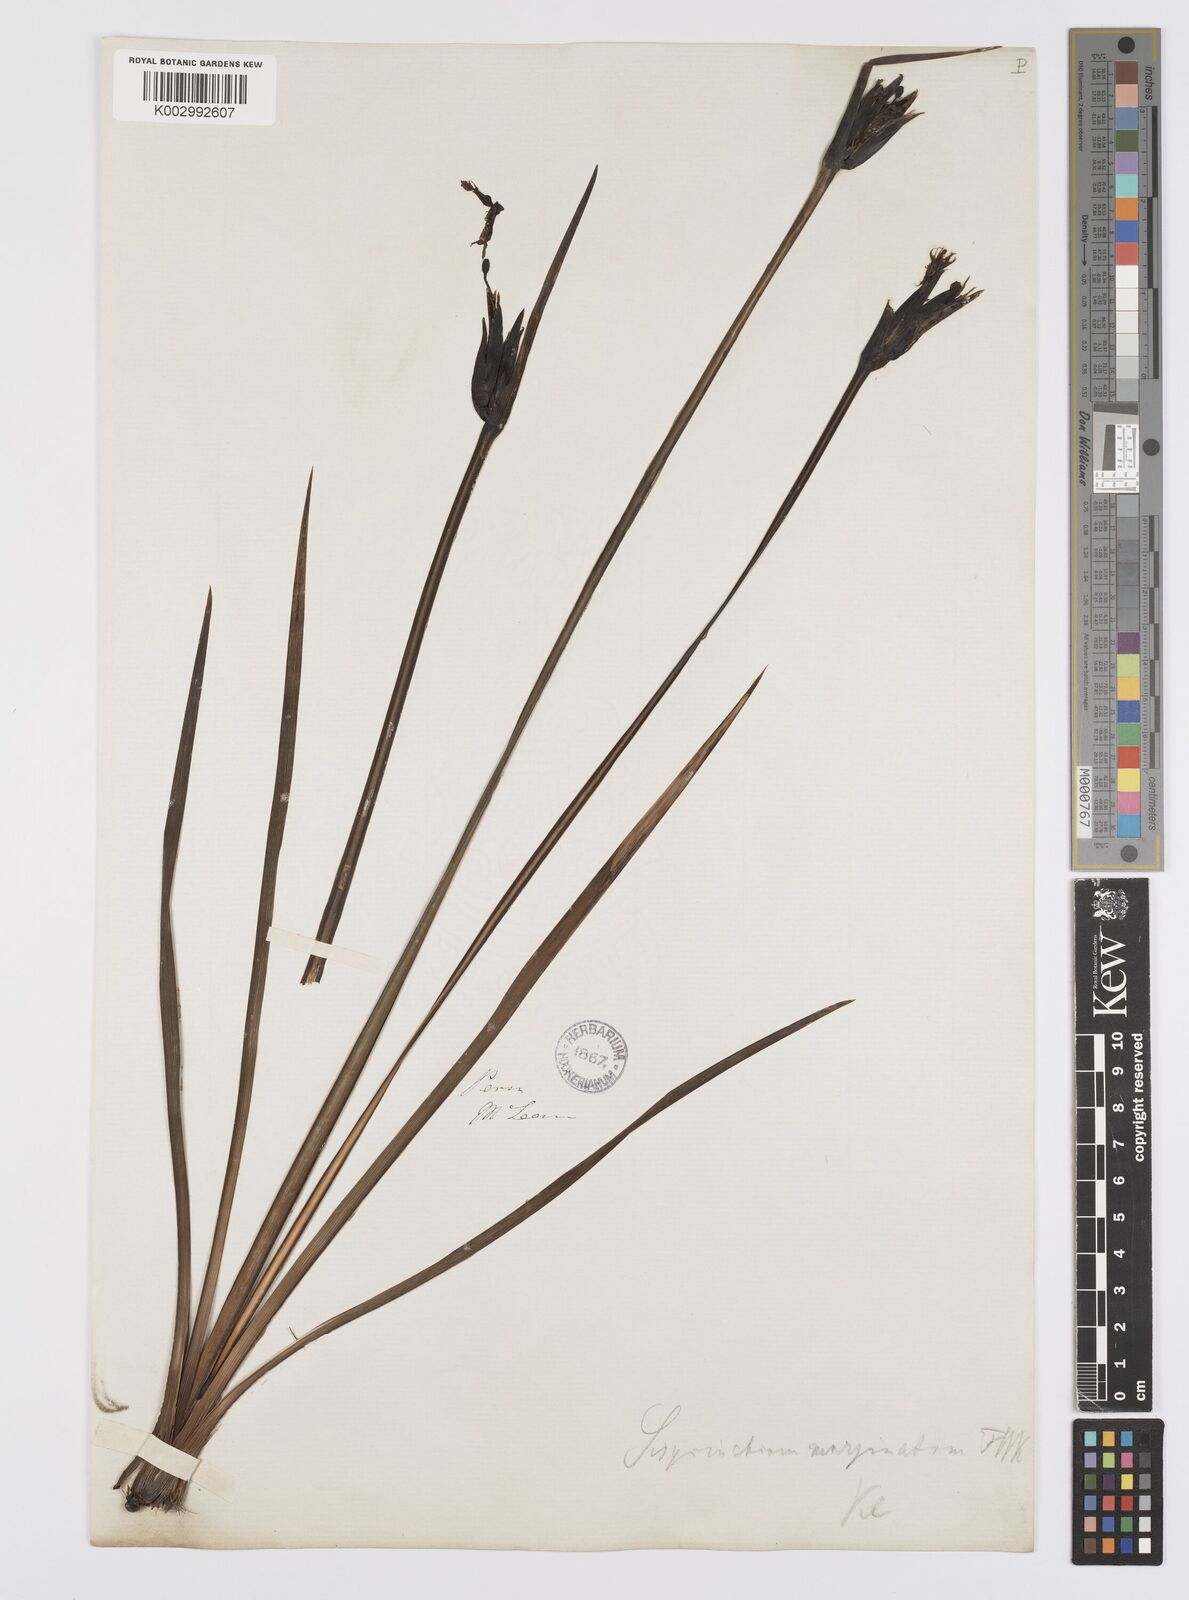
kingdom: Plantae
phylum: Tracheophyta
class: Liliopsida
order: Asparagales
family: Iridaceae
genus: Sisyrinchium
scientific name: Sisyrinchium palmifolium
